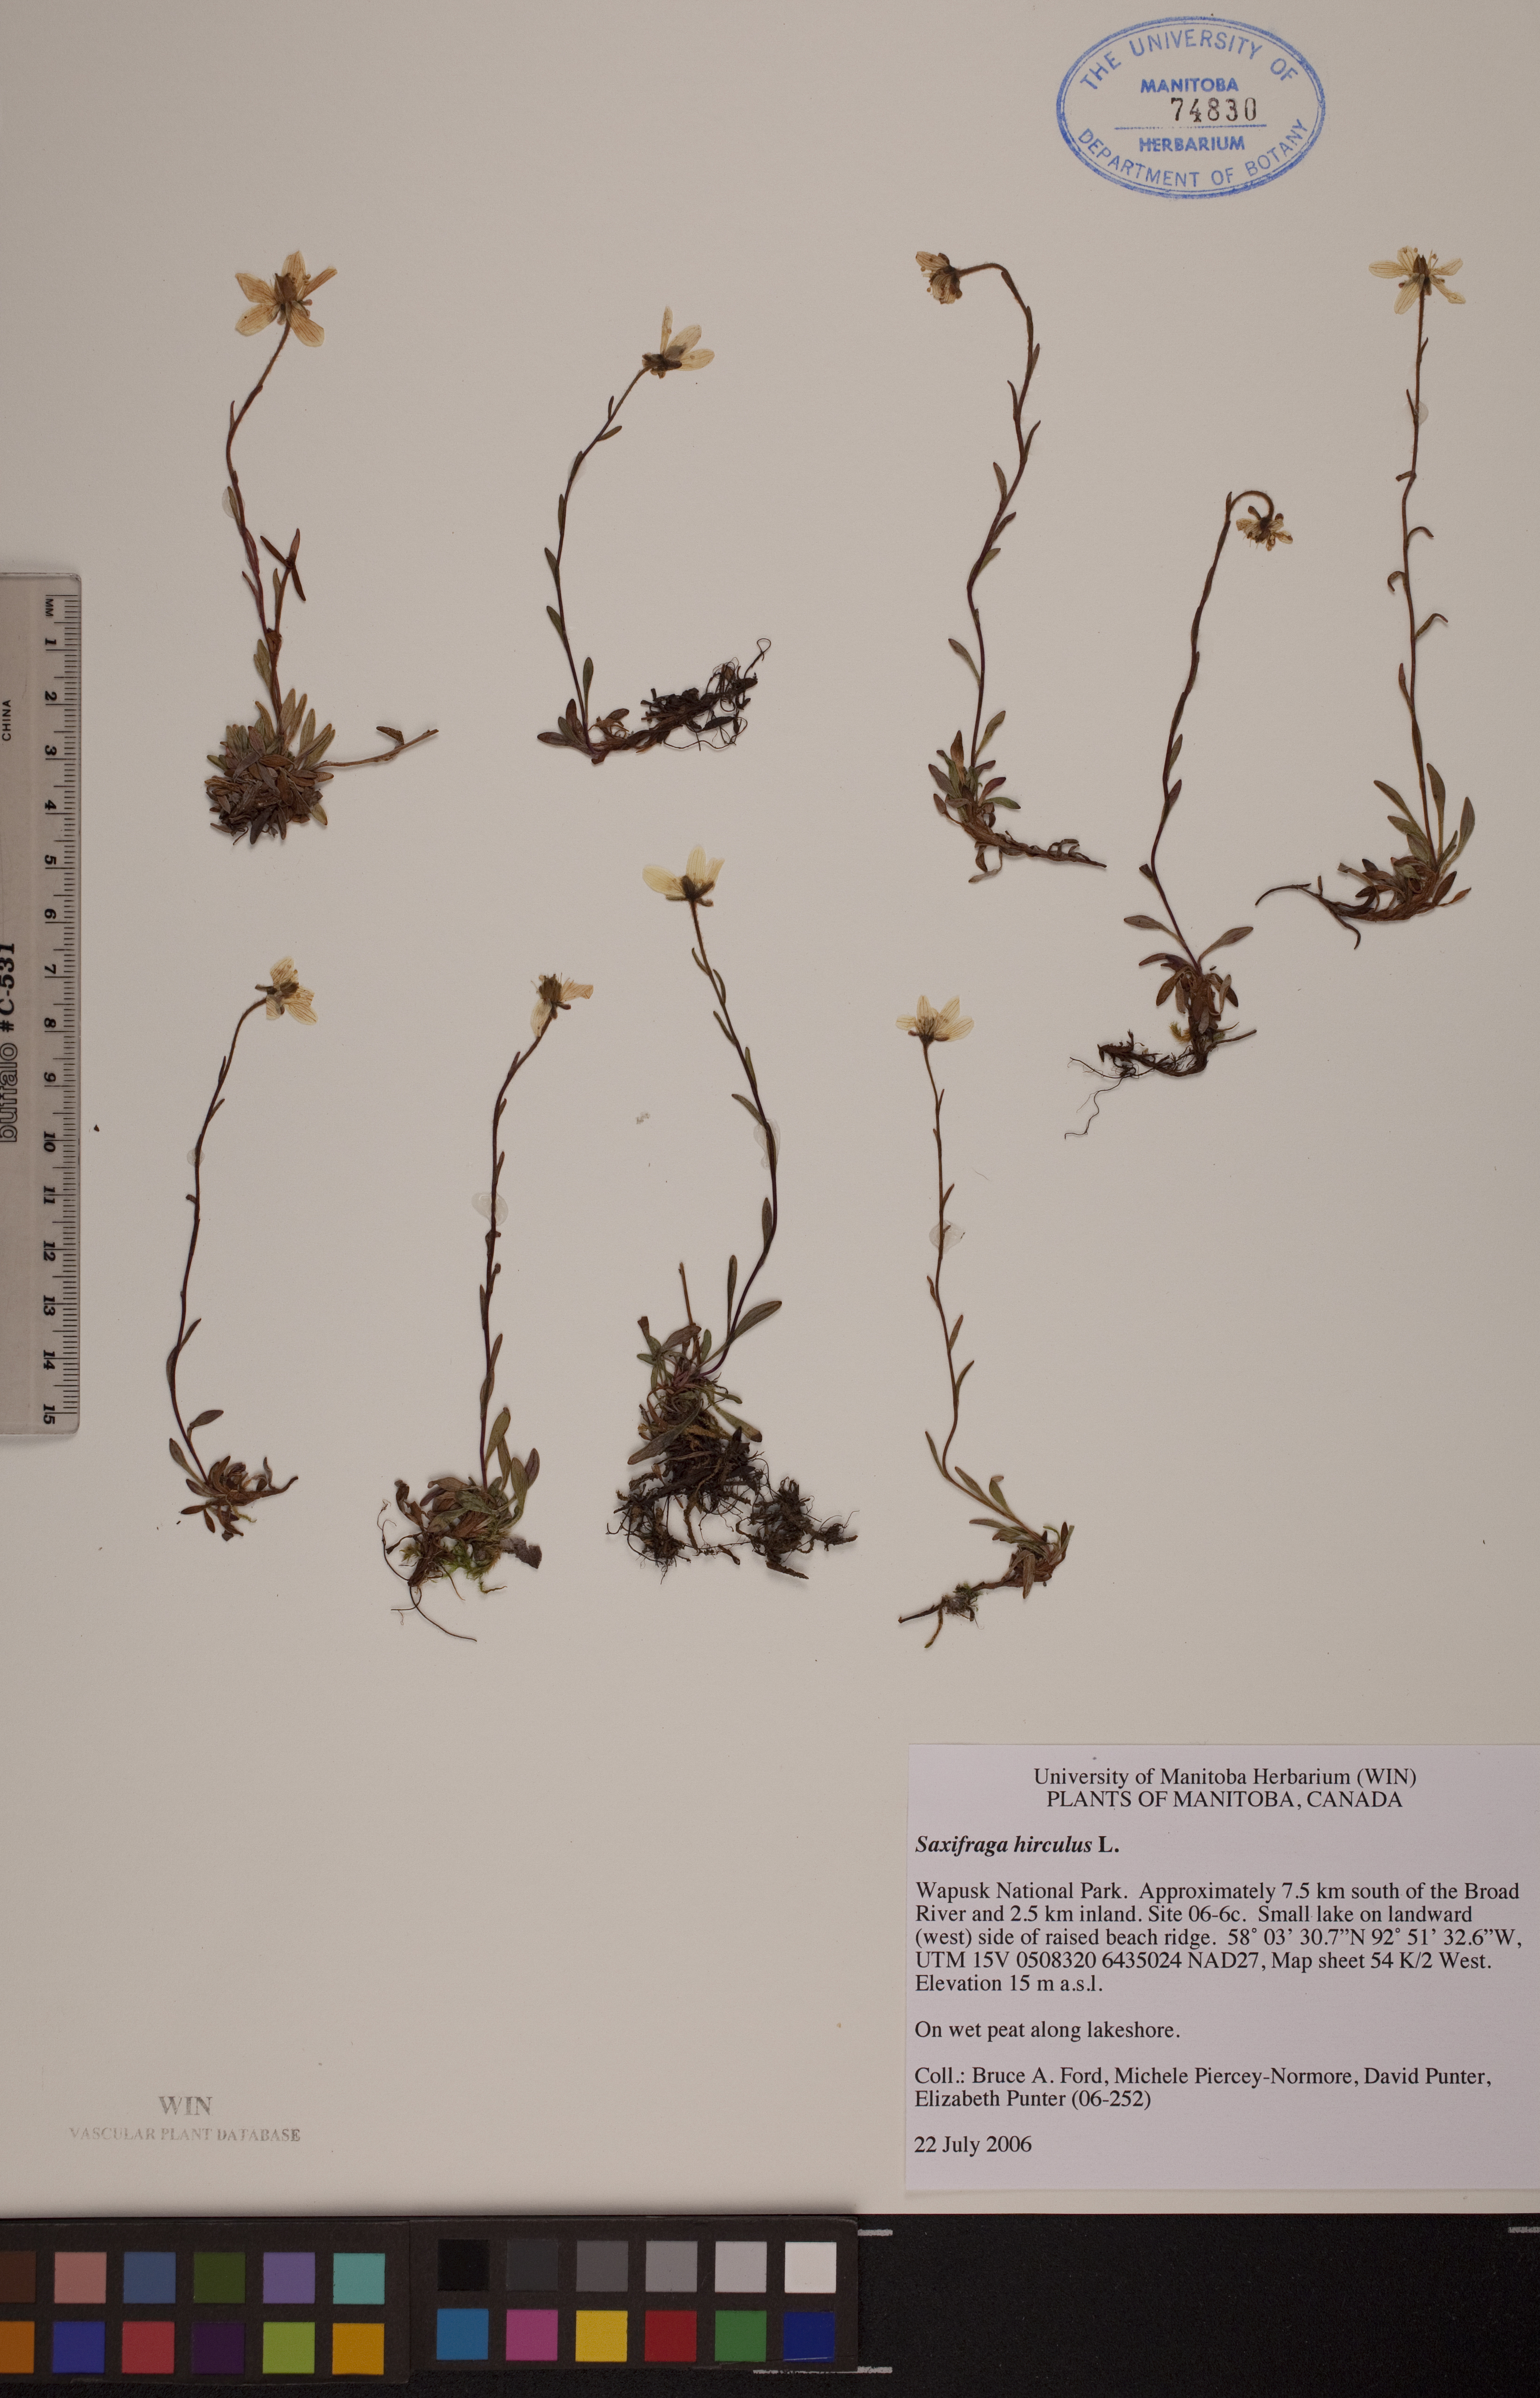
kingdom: Plantae
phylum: Tracheophyta
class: Magnoliopsida
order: Saxifragales
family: Saxifragaceae
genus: Saxifraga
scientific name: Saxifraga hirculus
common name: Yellow marsh saxifrage
